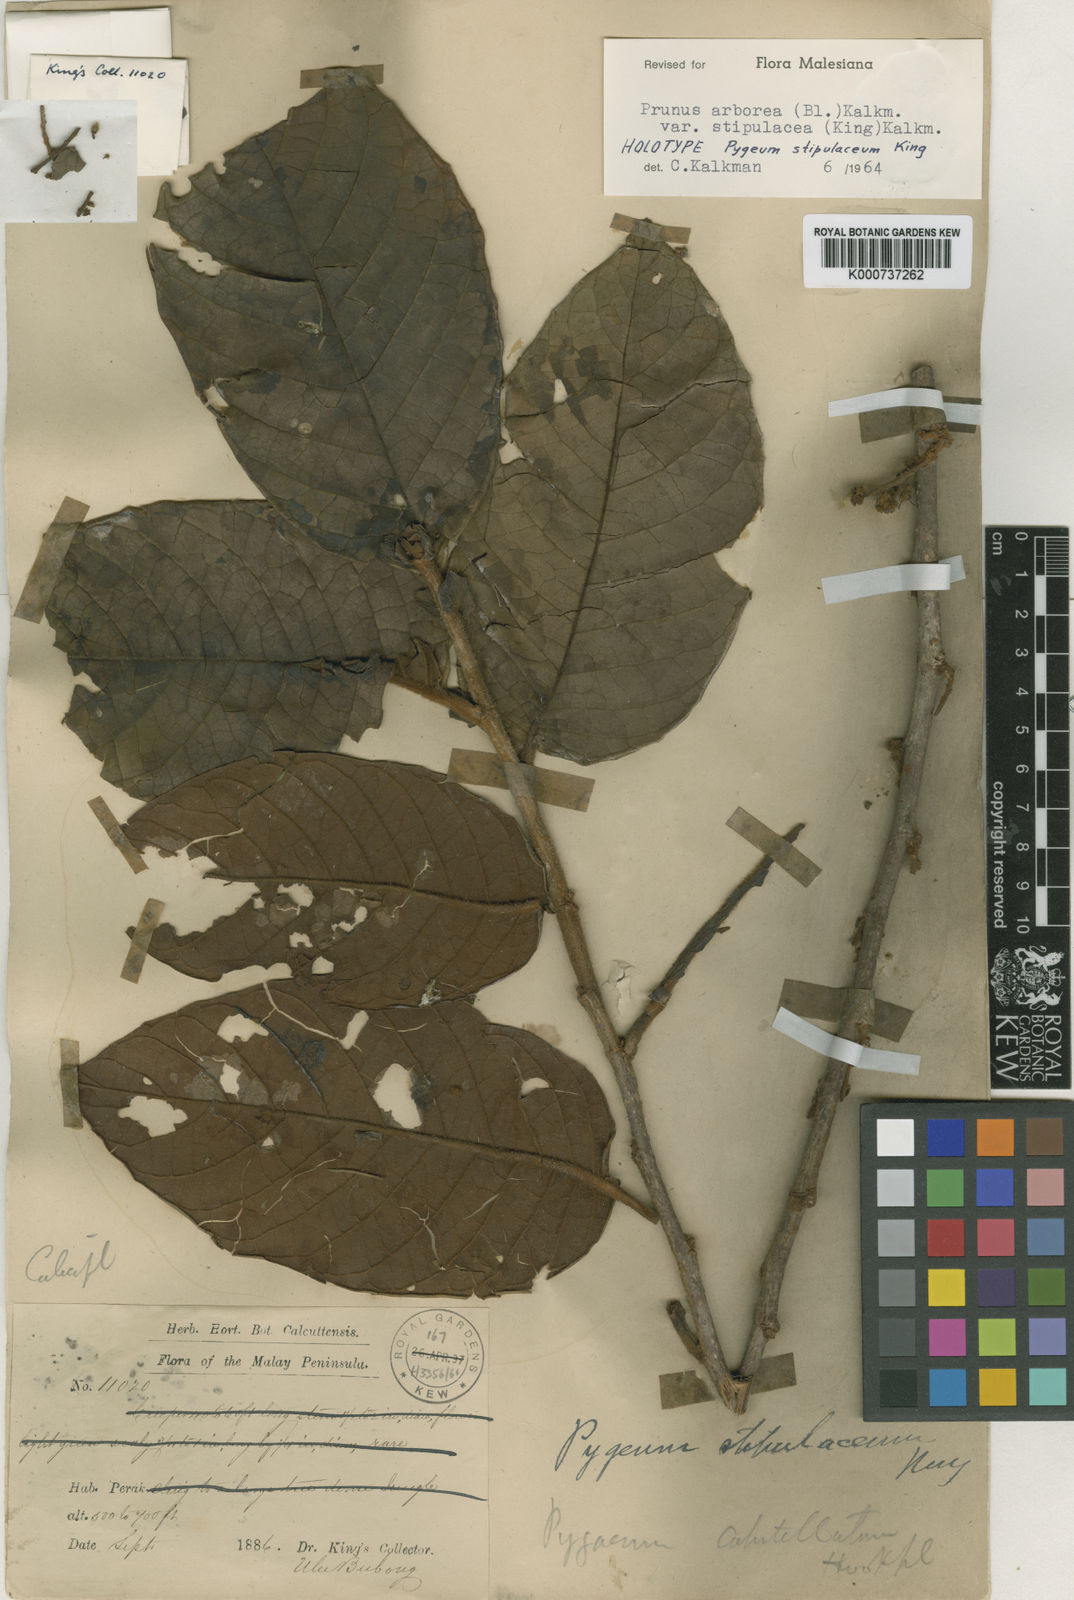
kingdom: Plantae
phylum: Tracheophyta
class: Magnoliopsida
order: Rosales
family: Rosaceae
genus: Prunus
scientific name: Prunus
